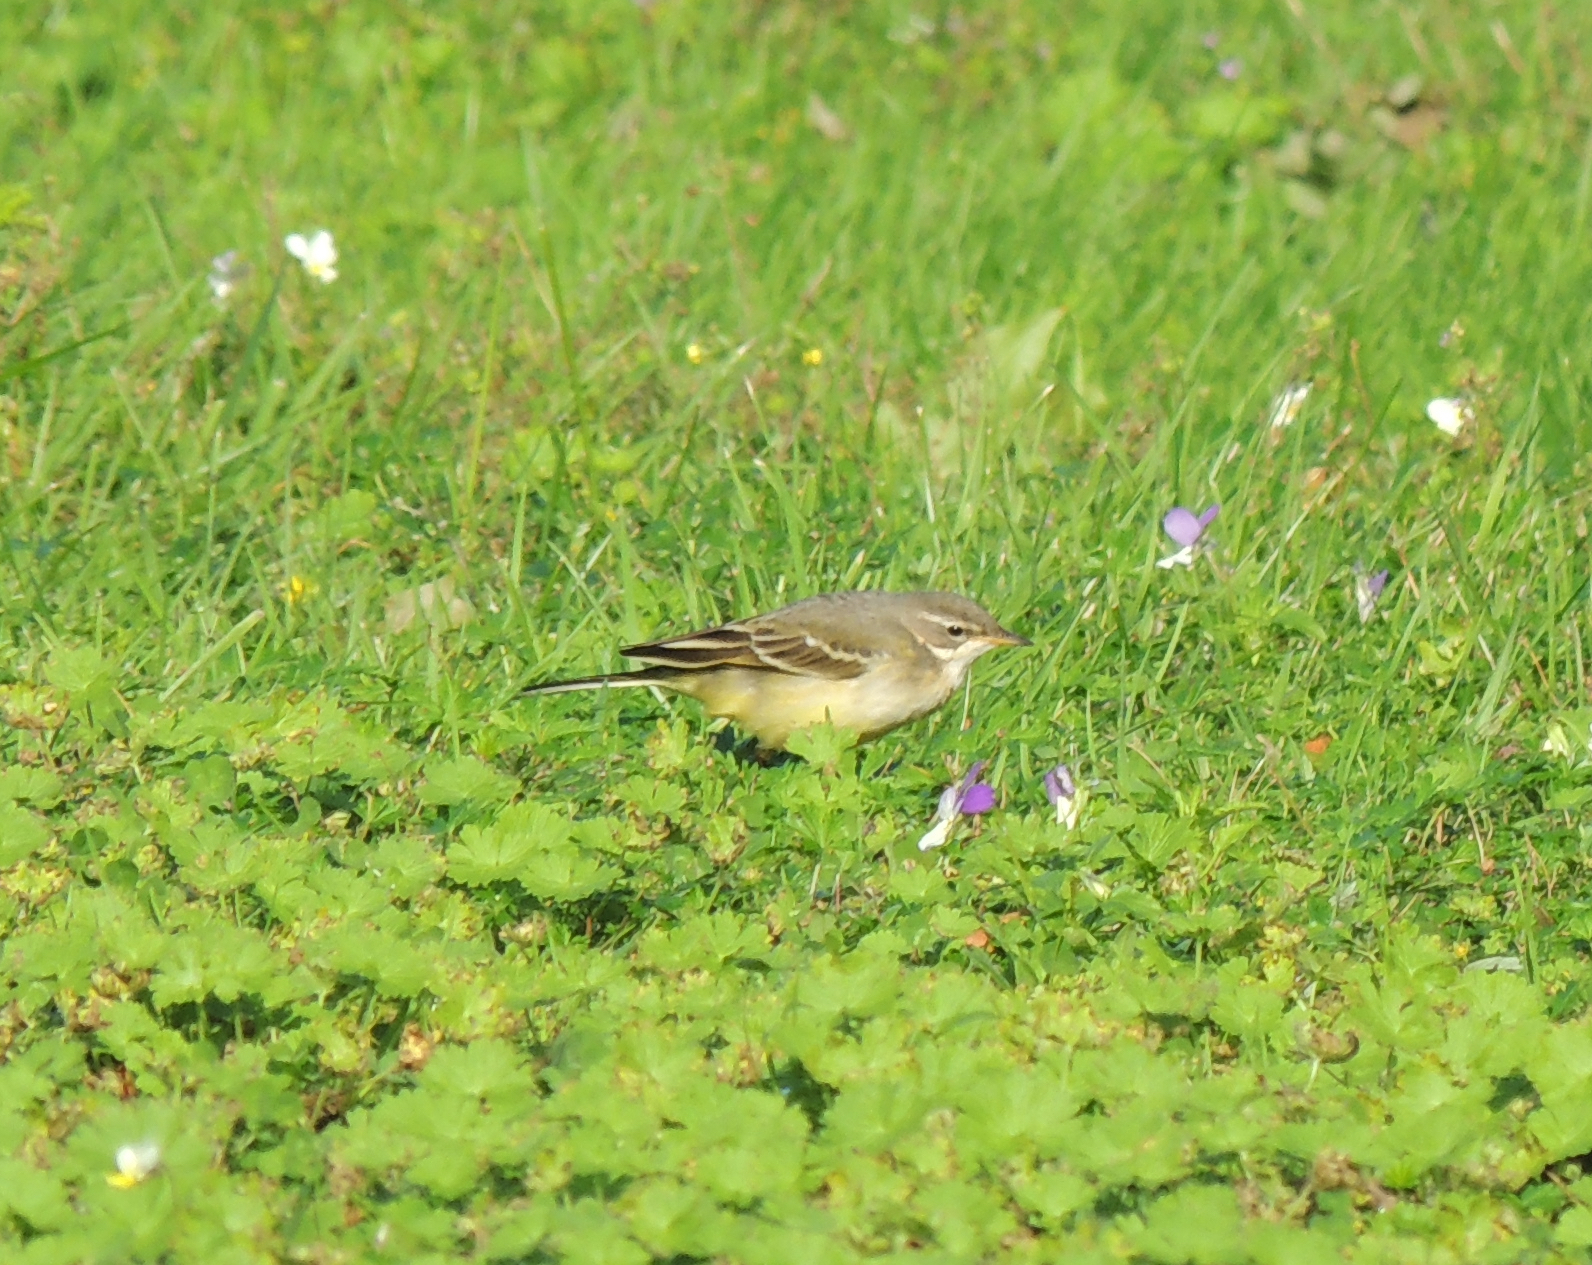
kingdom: Animalia
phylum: Chordata
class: Aves
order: Passeriformes
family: Motacillidae
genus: Motacilla
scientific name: Motacilla flava
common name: Western yellow wagtail
